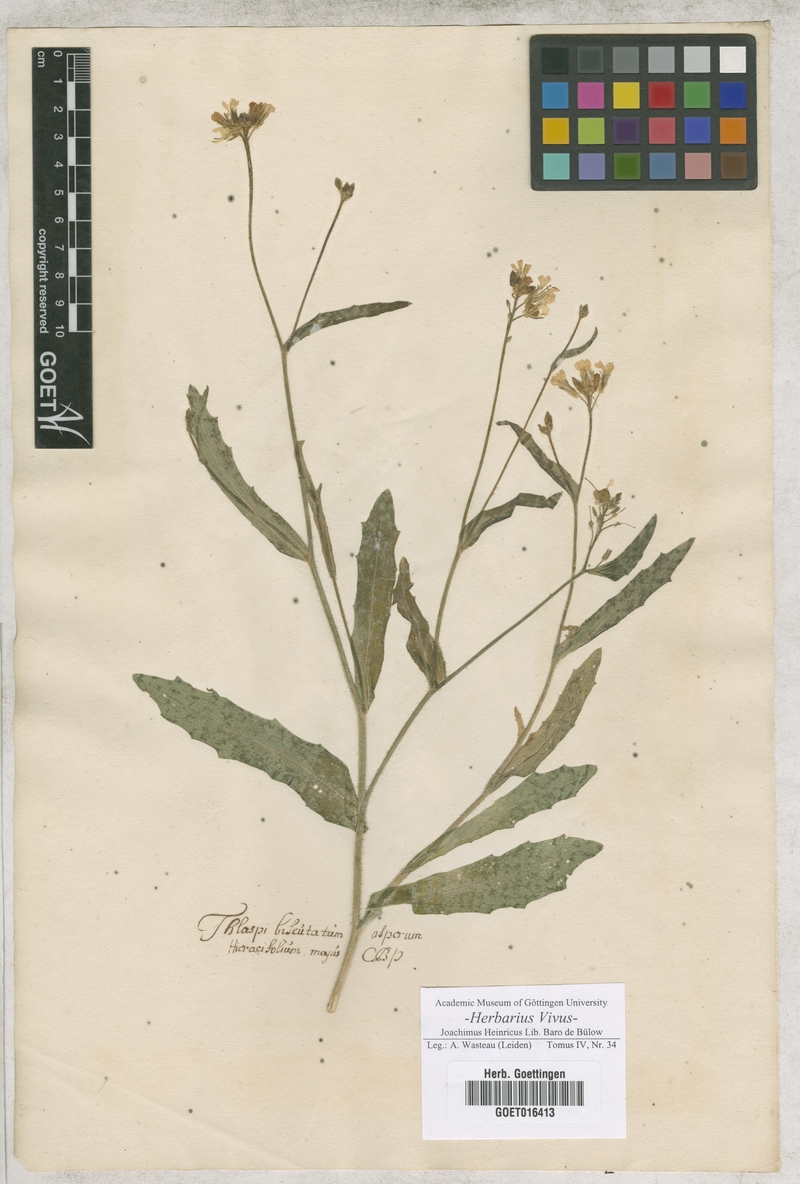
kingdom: Plantae
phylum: Tracheophyta
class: Magnoliopsida
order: Brassicales
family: Brassicaceae
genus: Biscutella
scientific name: Biscutella didyma
